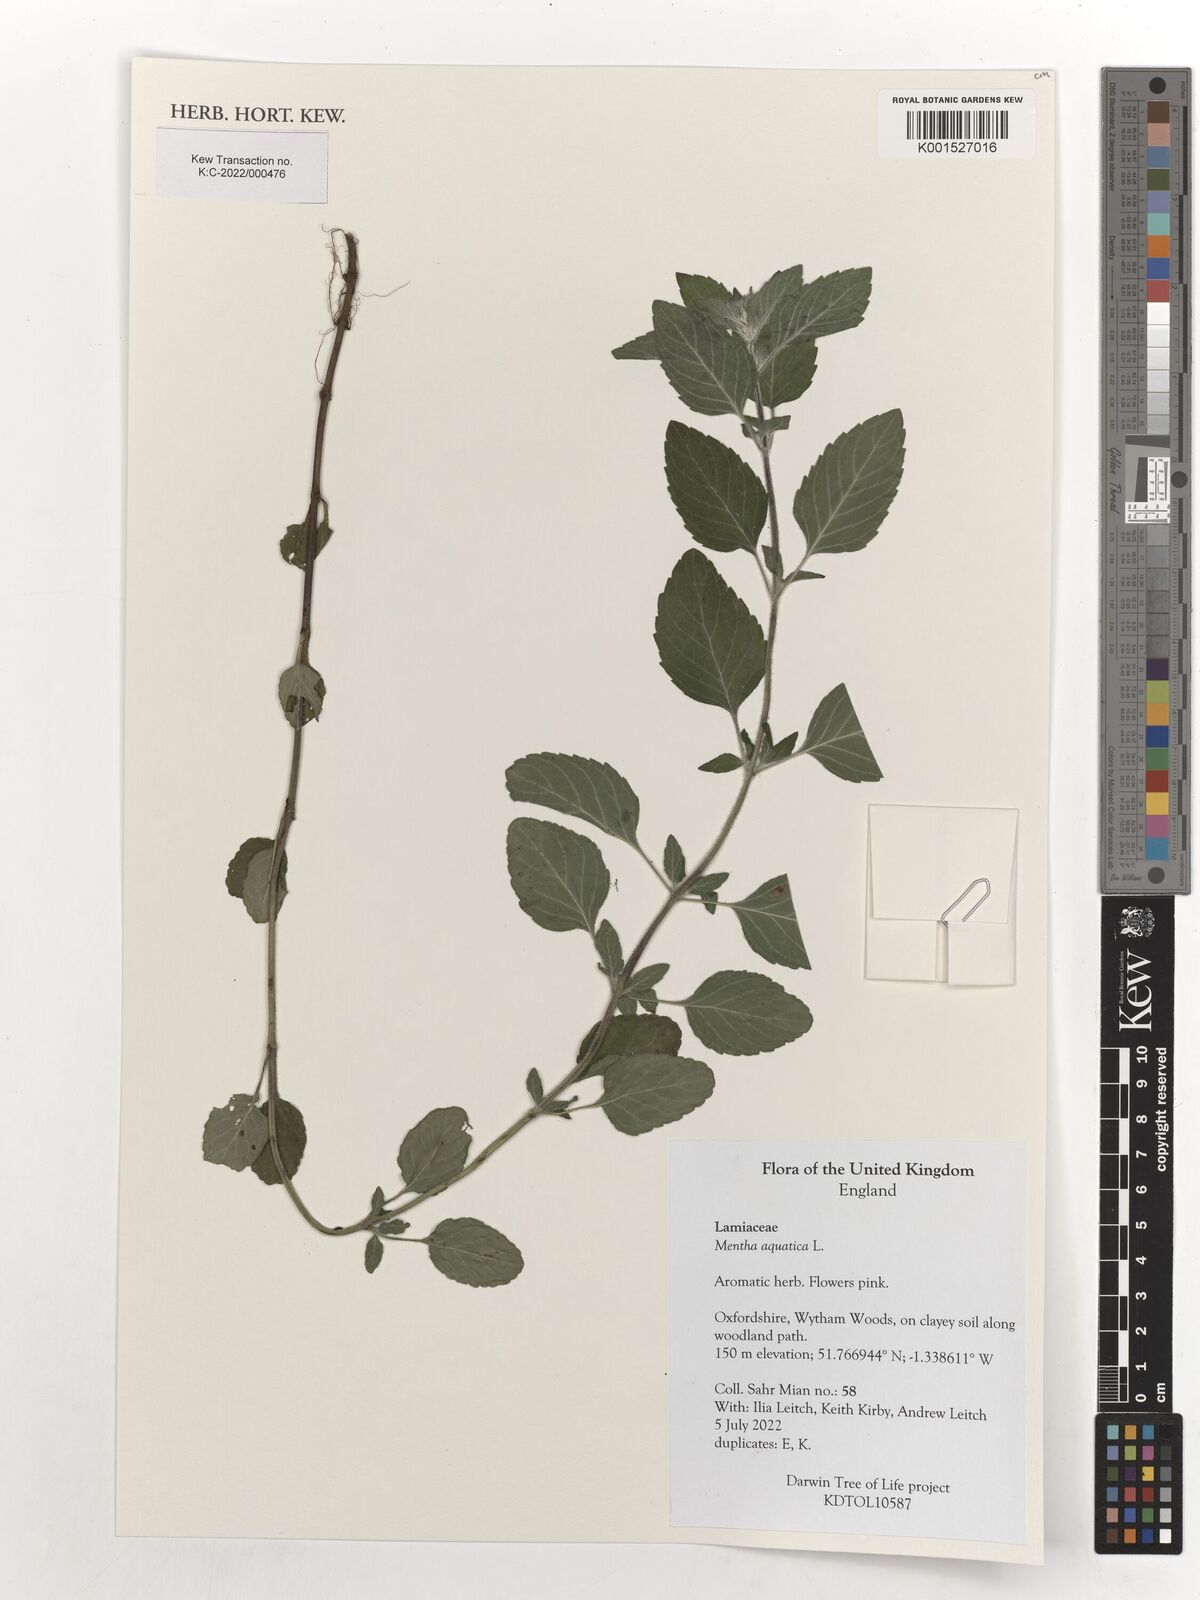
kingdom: Plantae
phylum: Tracheophyta
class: Magnoliopsida
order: Lamiales
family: Lamiaceae
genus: Mentha
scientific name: Mentha aquatica
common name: Water mint
